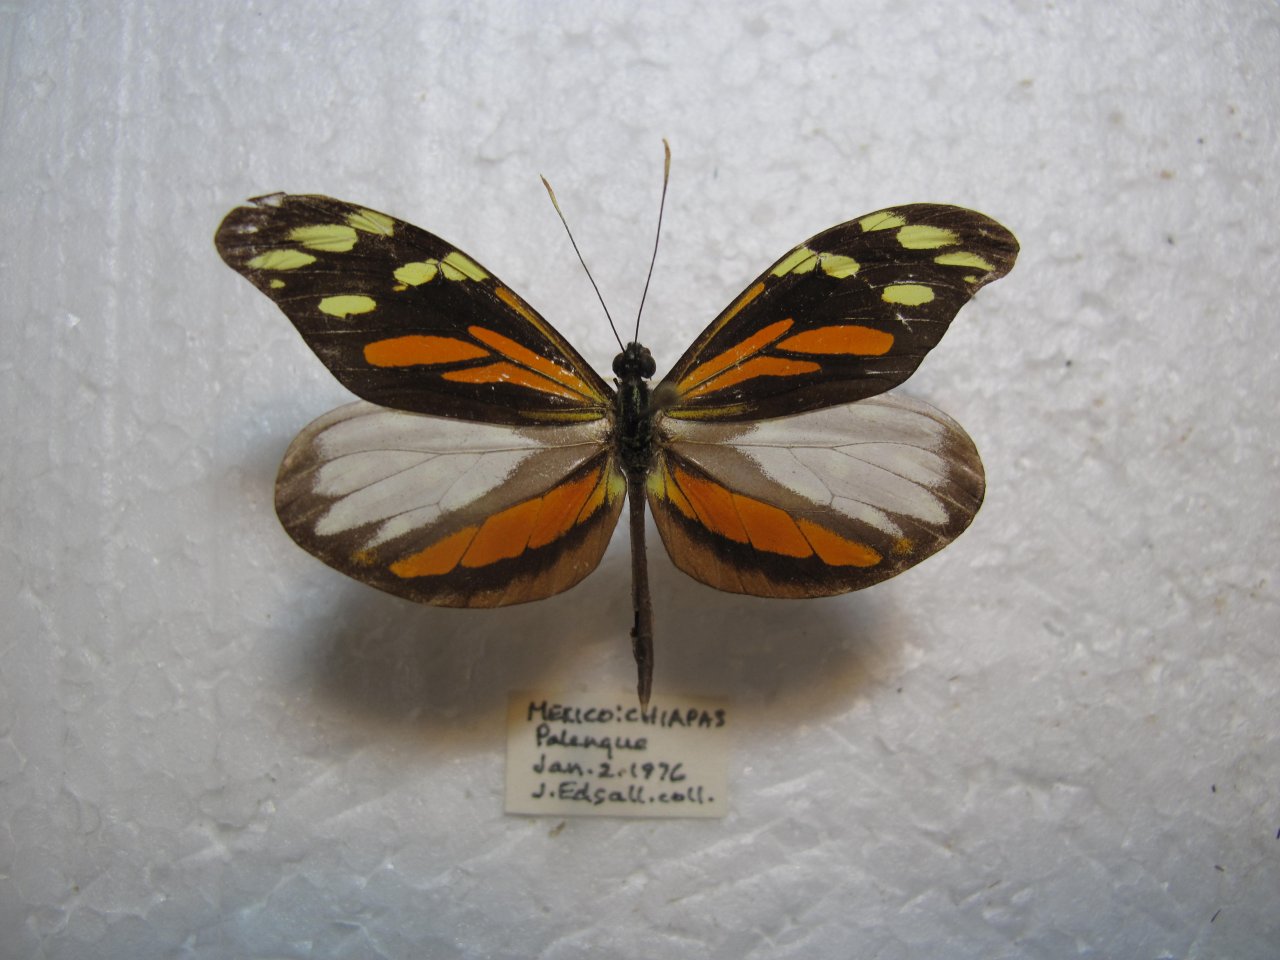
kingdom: Animalia
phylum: Arthropoda
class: Insecta
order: Lepidoptera
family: Pieridae
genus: Dismorphia
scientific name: Dismorphia amphione
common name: Tiger Mimic-White
